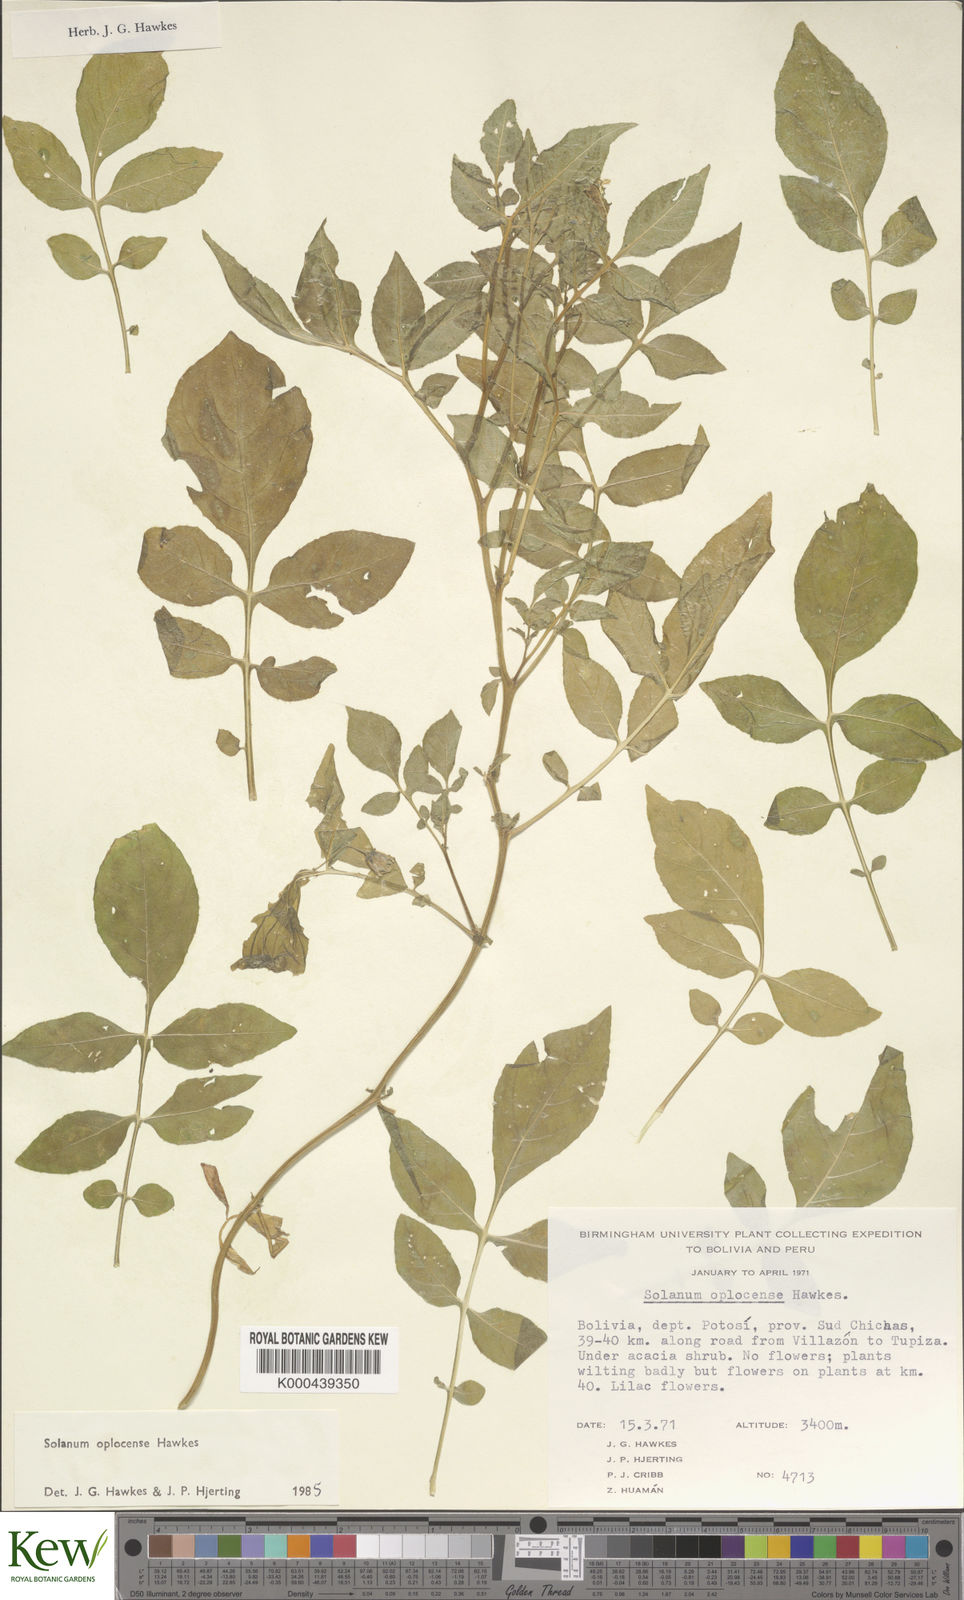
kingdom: Plantae
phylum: Tracheophyta
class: Magnoliopsida
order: Solanales
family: Solanaceae
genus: Solanum
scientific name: Solanum brevicaule
